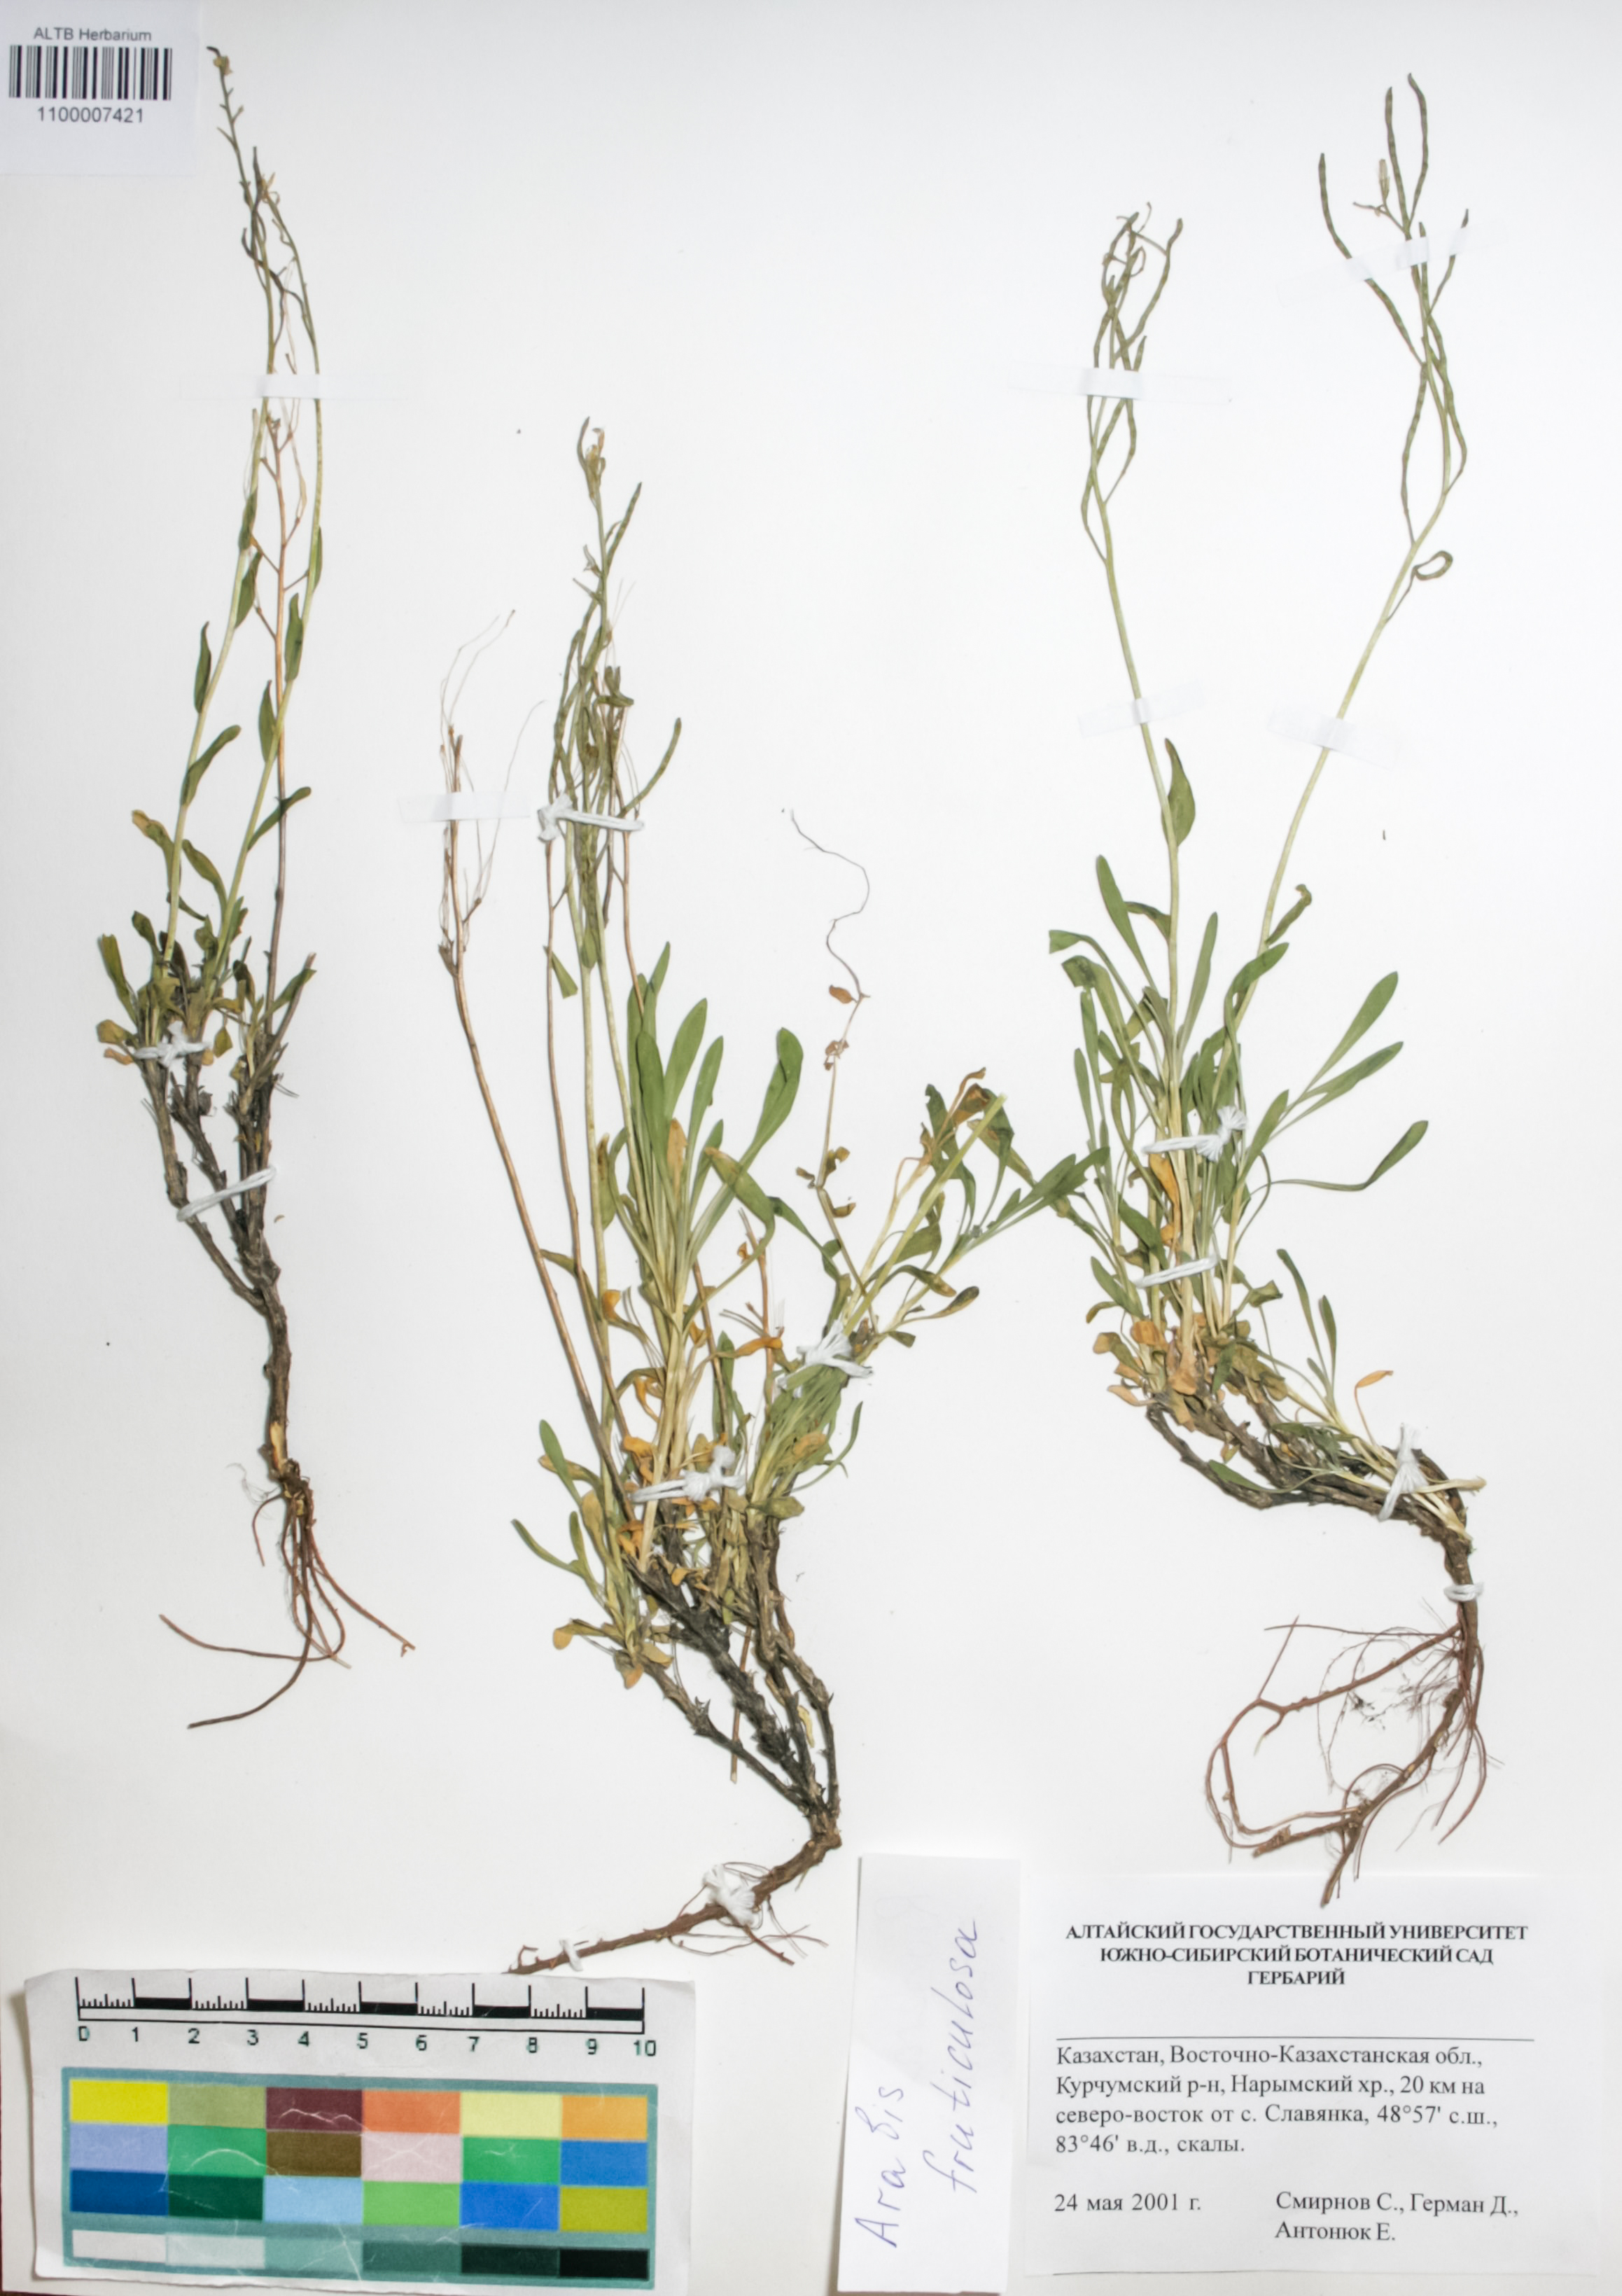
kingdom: Plantae
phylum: Tracheophyta
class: Magnoliopsida
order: Brassicales
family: Brassicaceae
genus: Dendroarabis
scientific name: Dendroarabis fruticulosa
